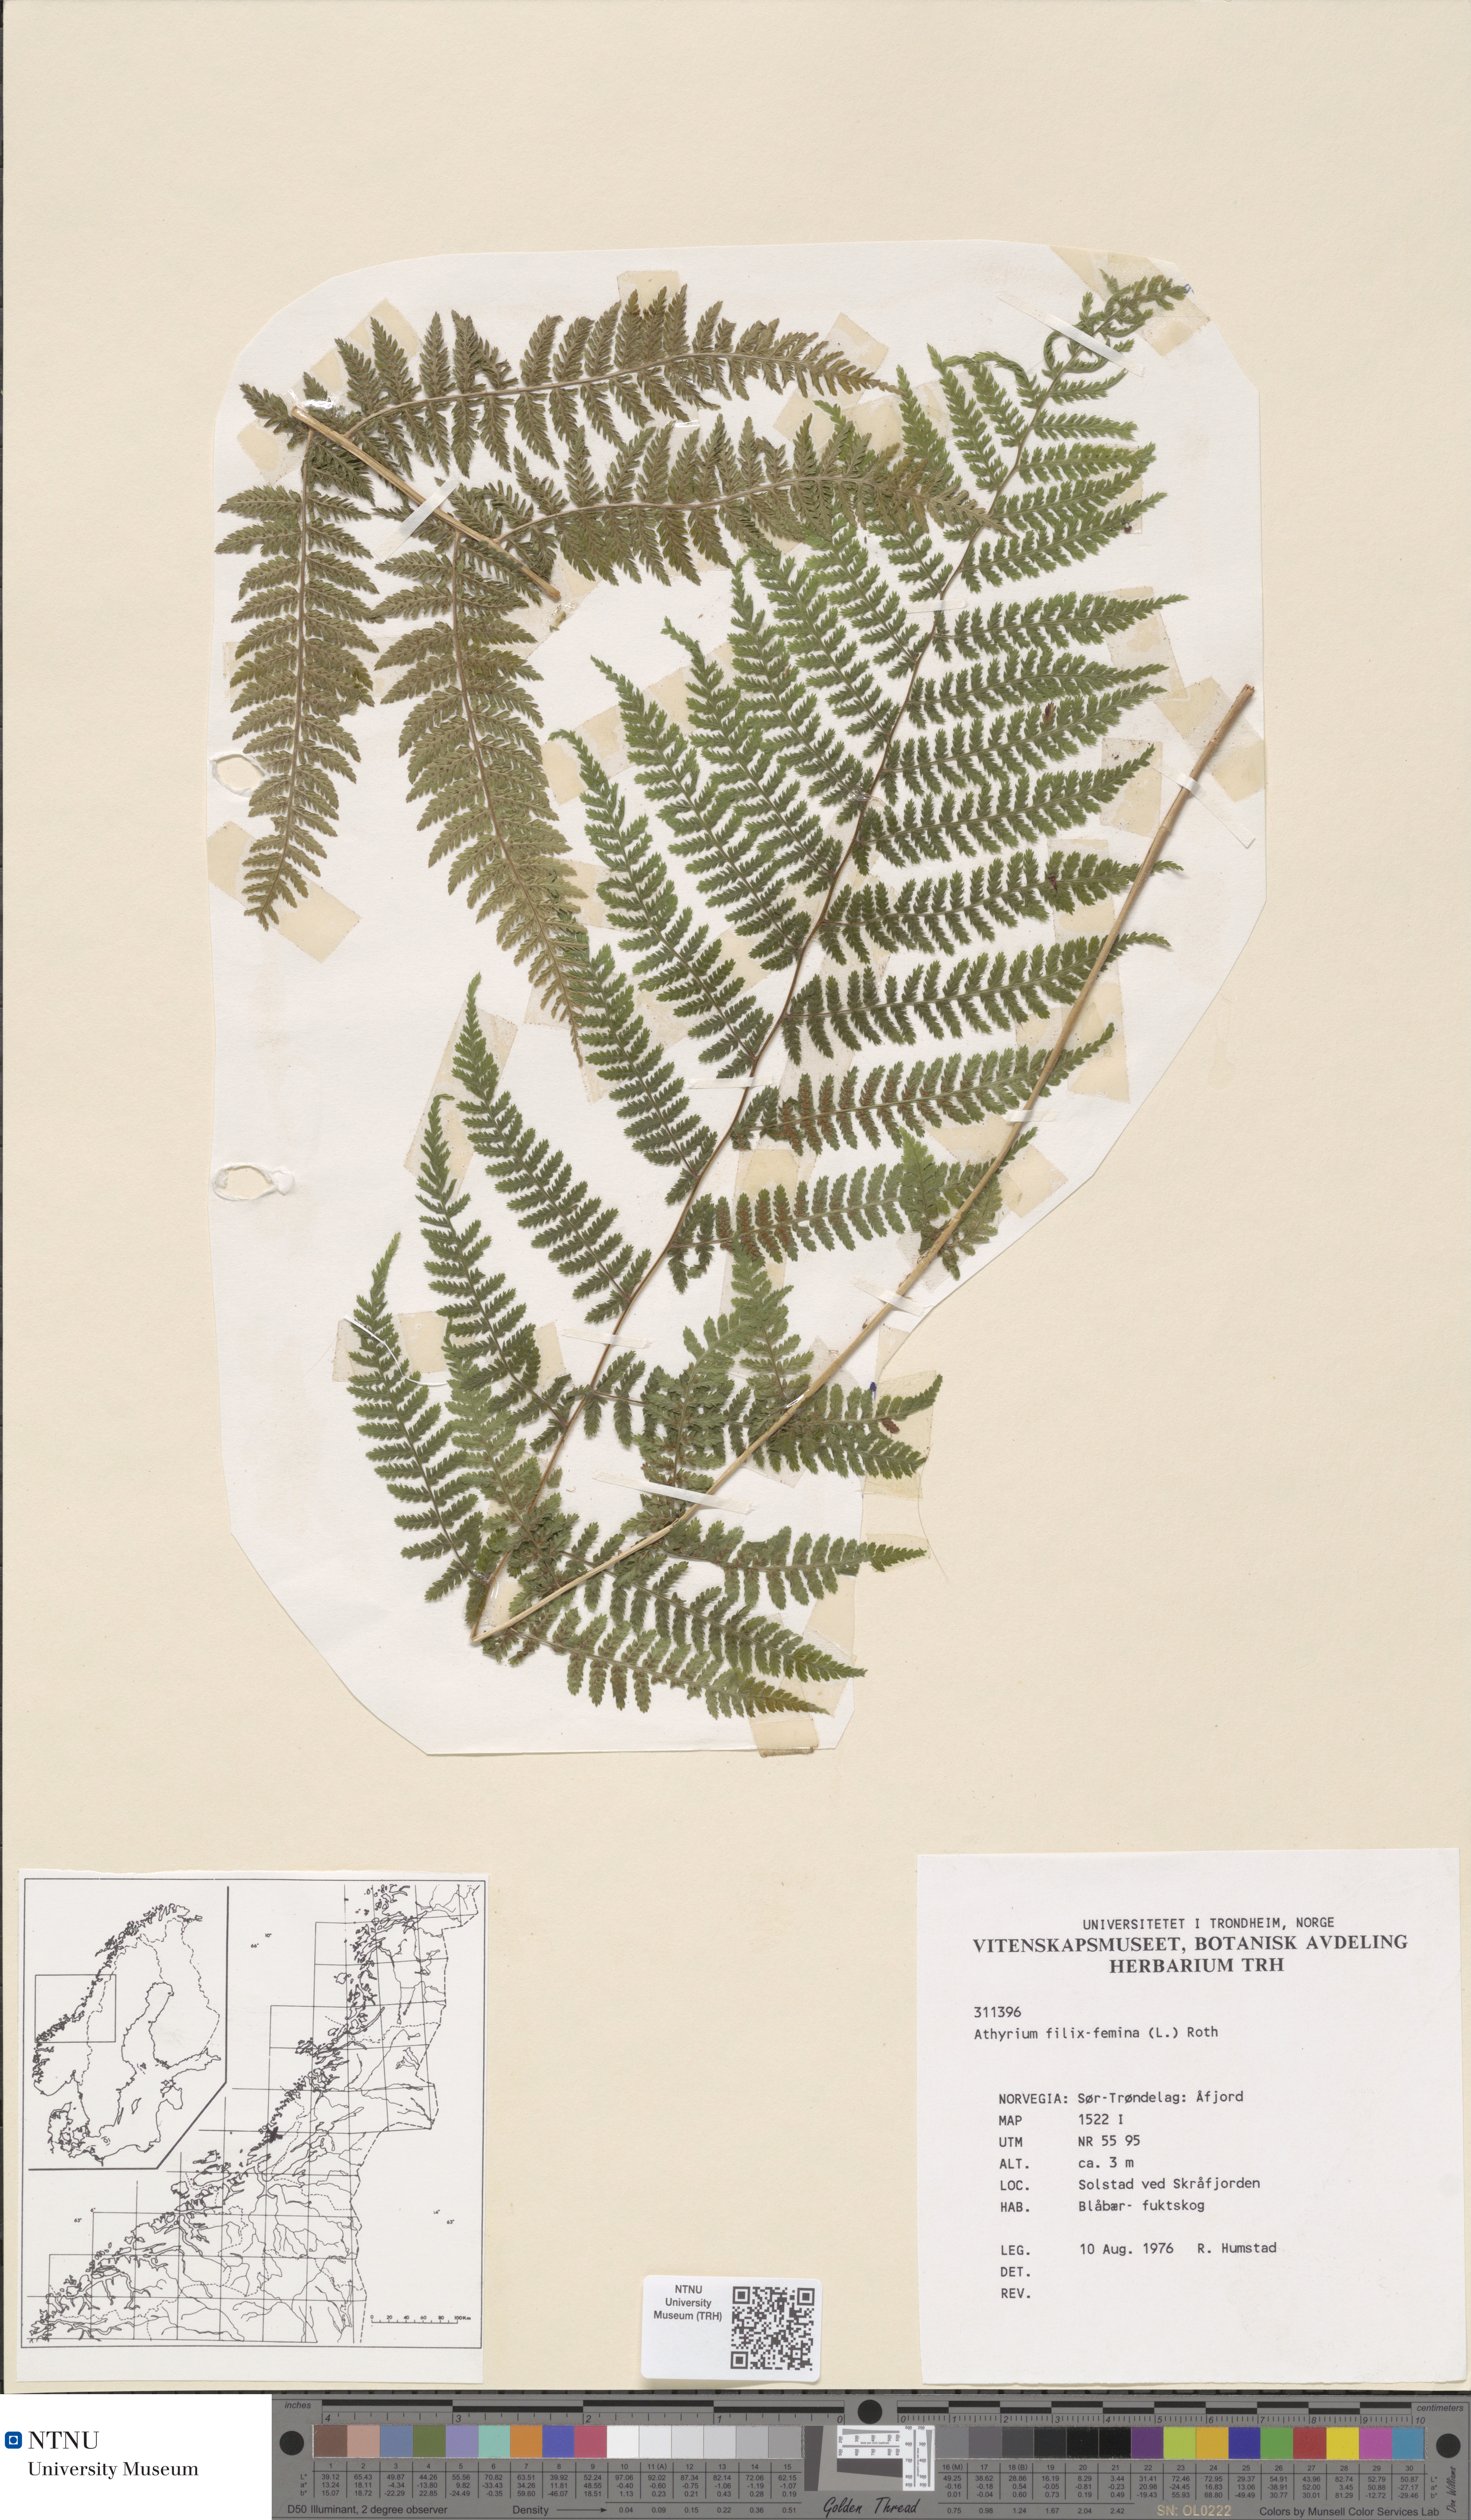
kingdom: Plantae
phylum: Tracheophyta
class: Polypodiopsida
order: Polypodiales
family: Athyriaceae
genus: Athyrium
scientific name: Athyrium filix-femina
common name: Lady fern
